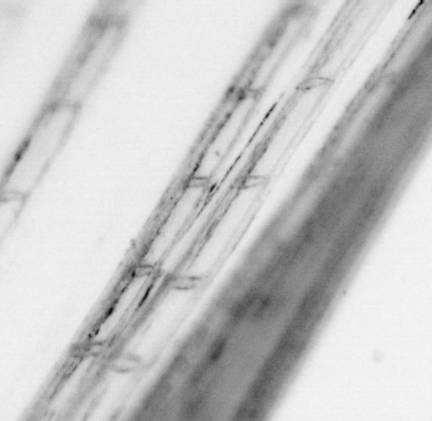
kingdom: Animalia
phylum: Chordata
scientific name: Chordata
